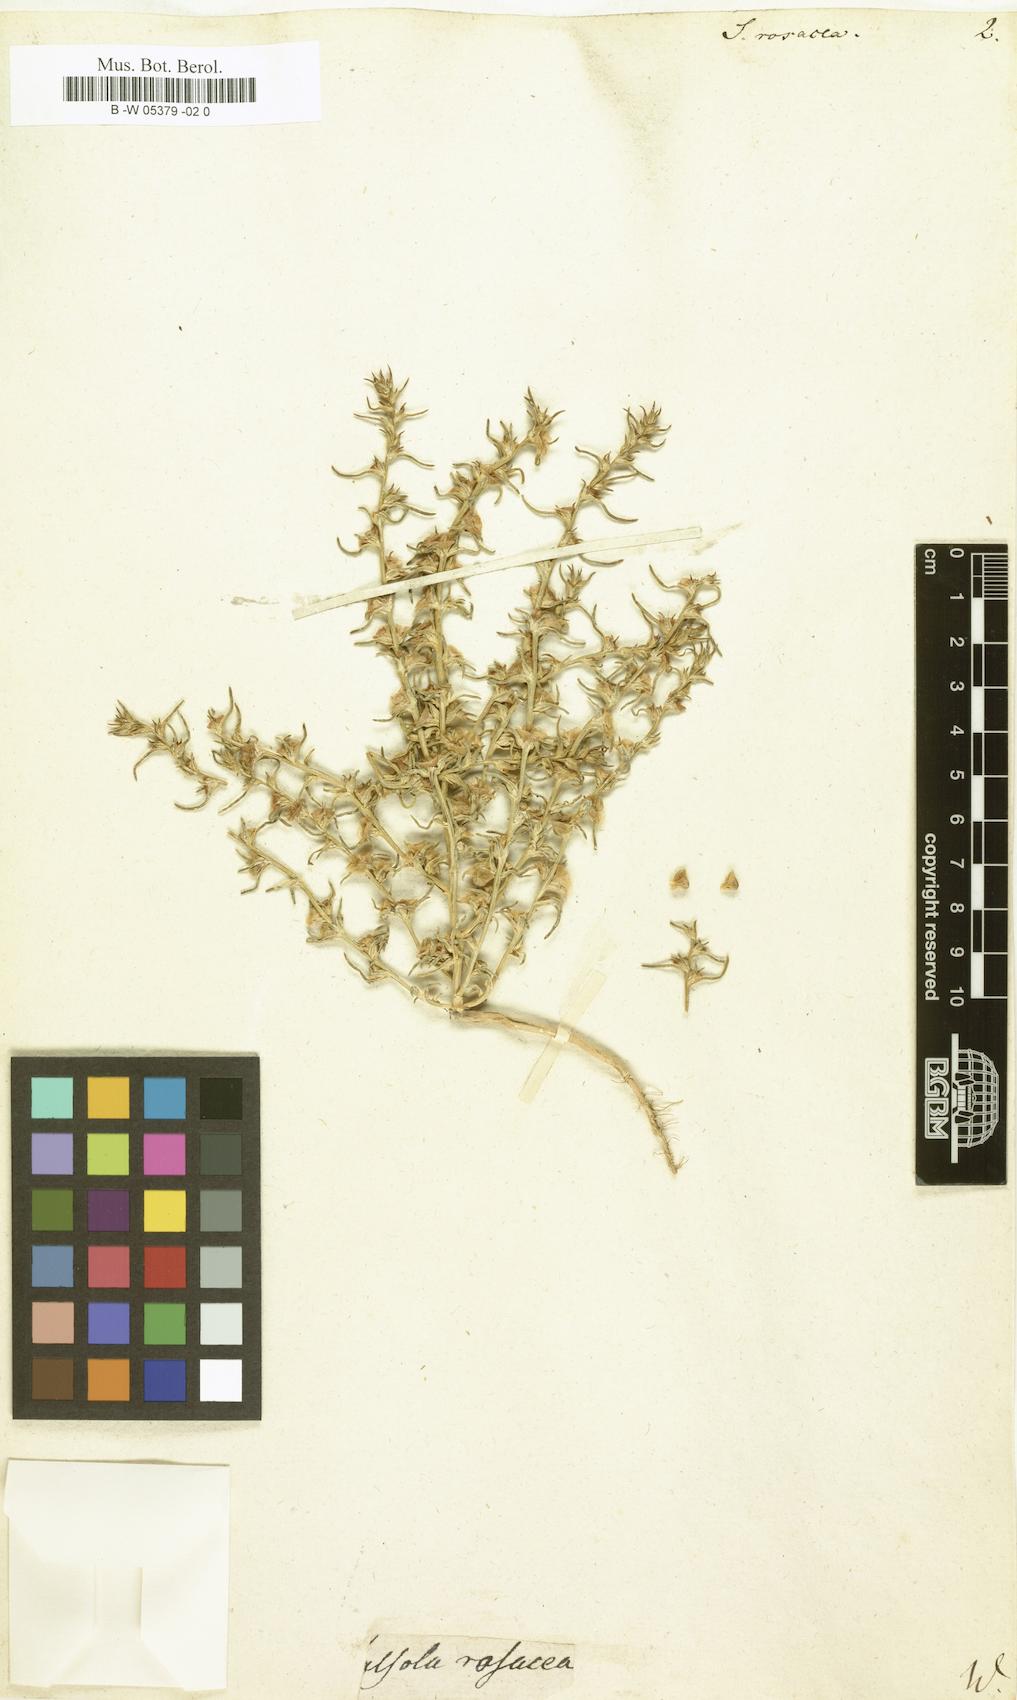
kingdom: Plantae
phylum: Tracheophyta
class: Magnoliopsida
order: Caryophyllales
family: Amaranthaceae
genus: Salsola
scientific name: Salsola rosacea
